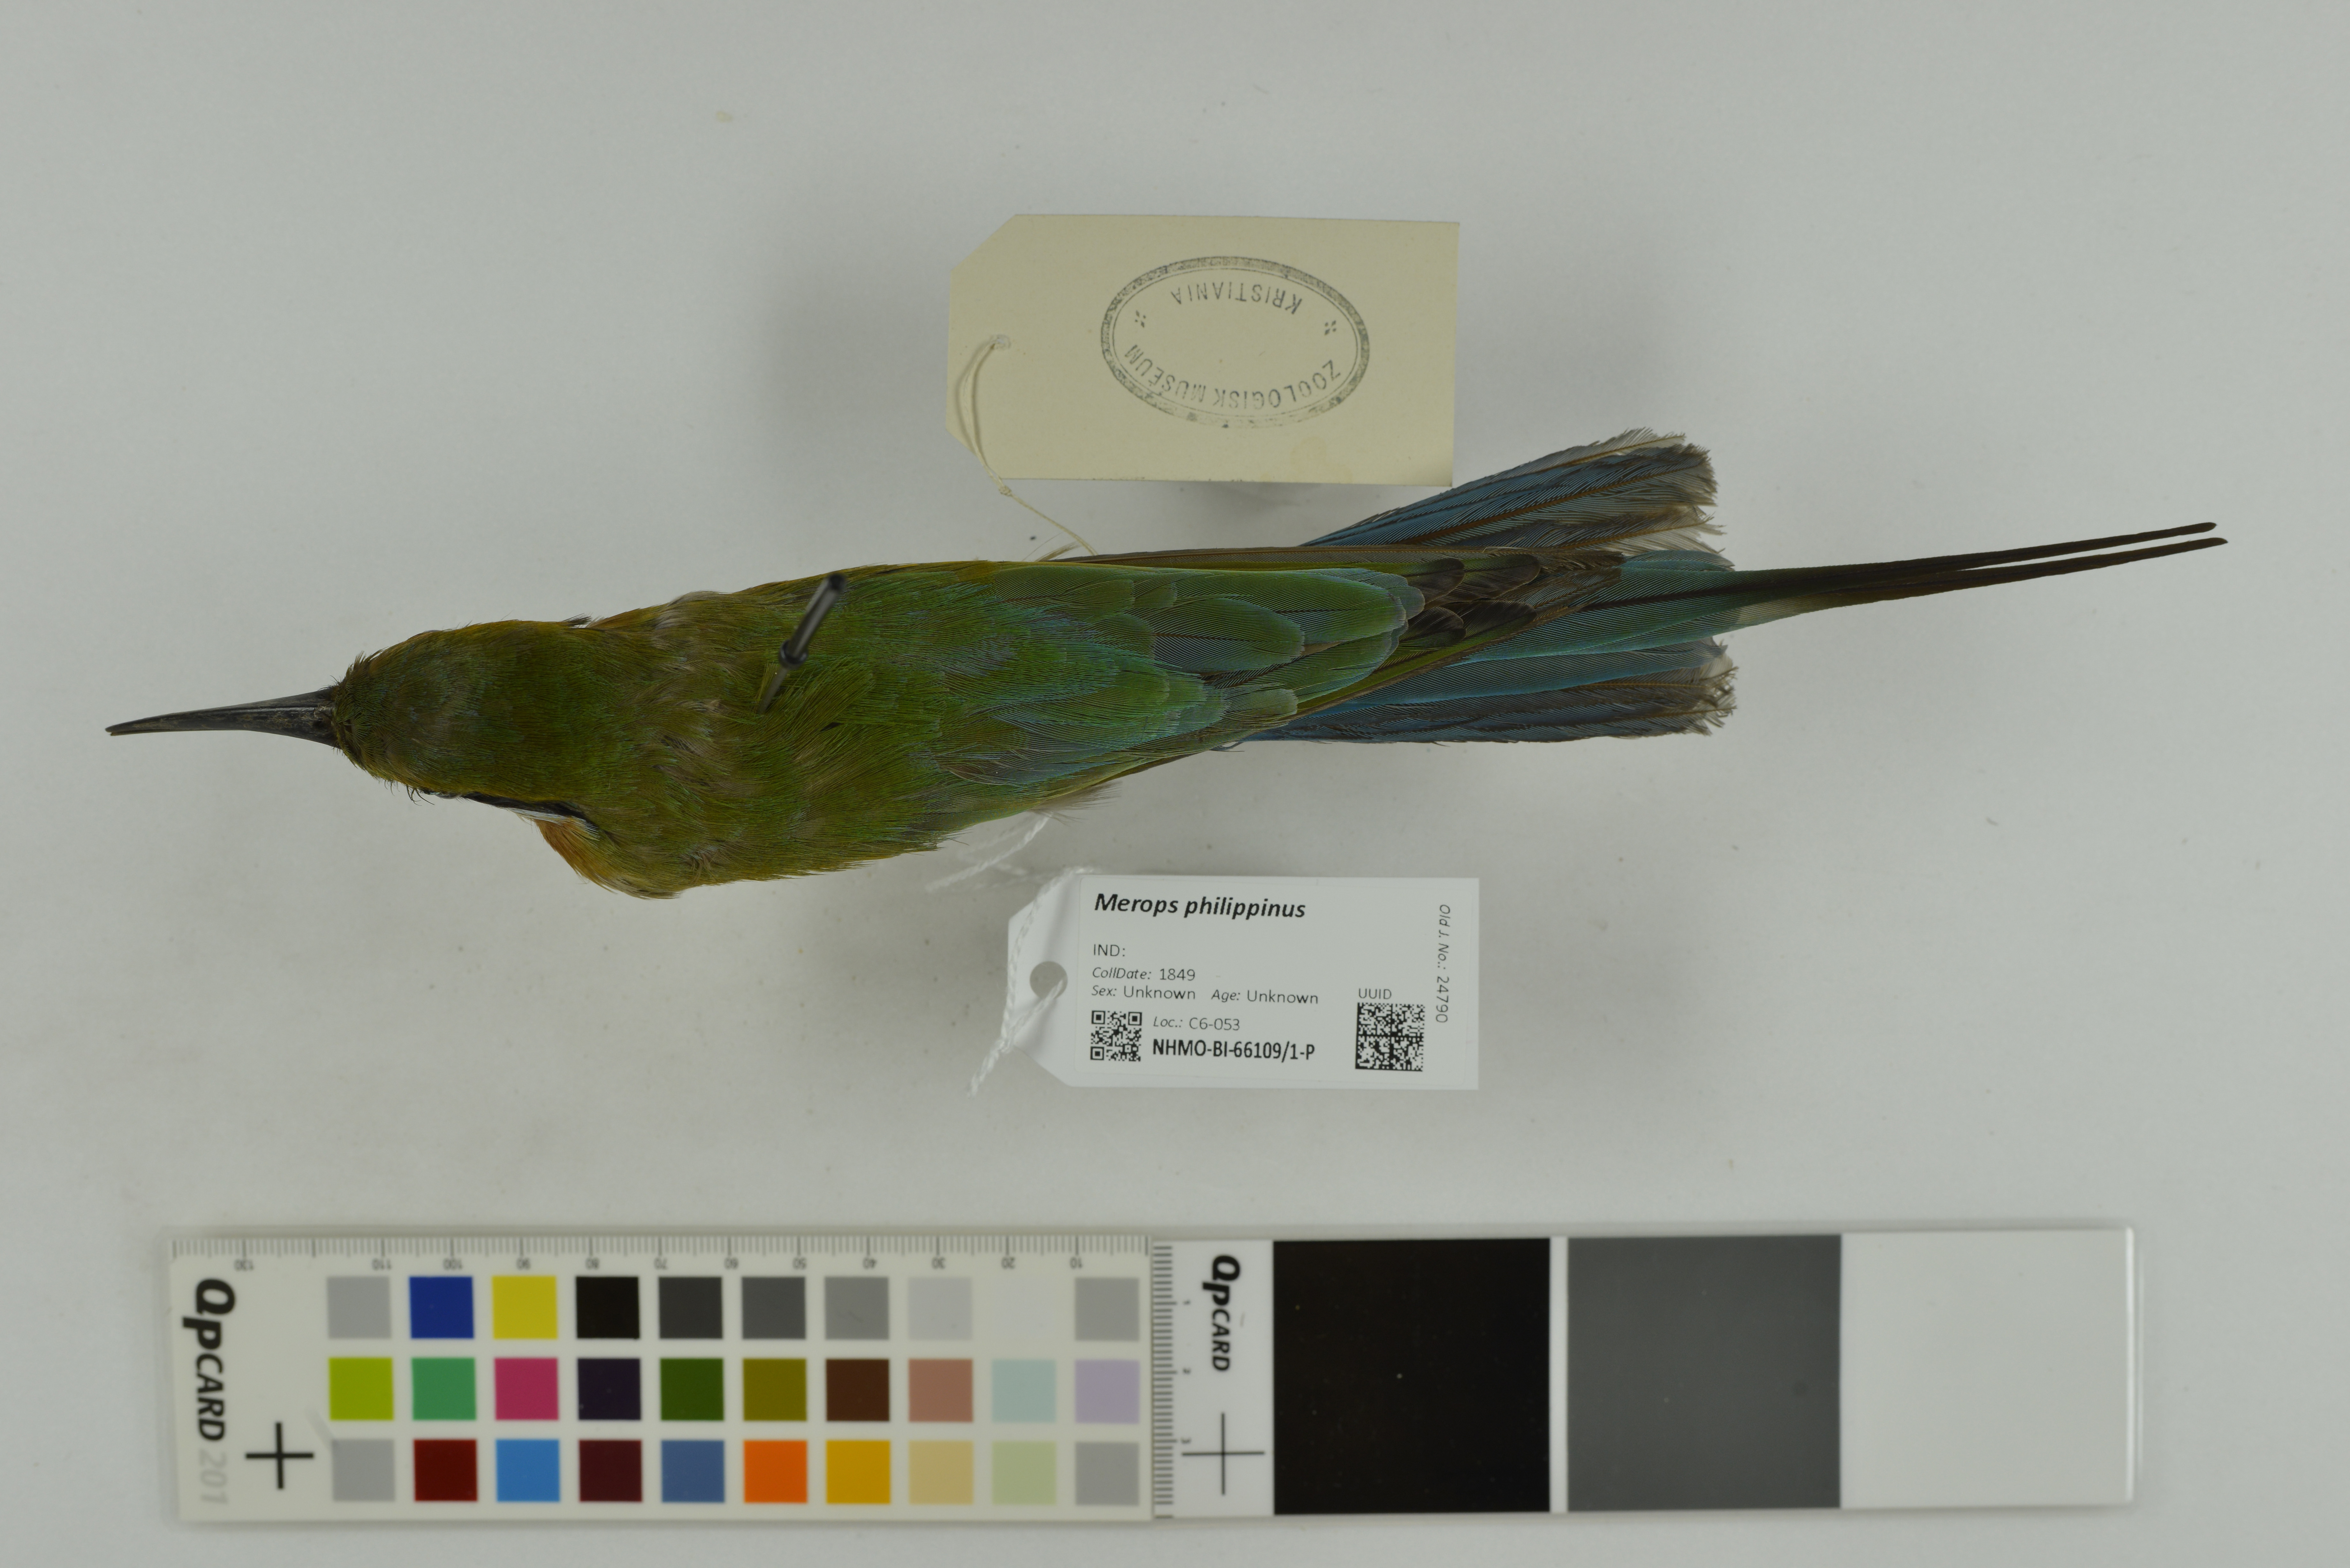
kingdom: Animalia
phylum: Chordata
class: Aves
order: Coraciiformes
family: Meropidae
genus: Merops
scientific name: Merops philippinus
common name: Blue-tailed bee-eater
